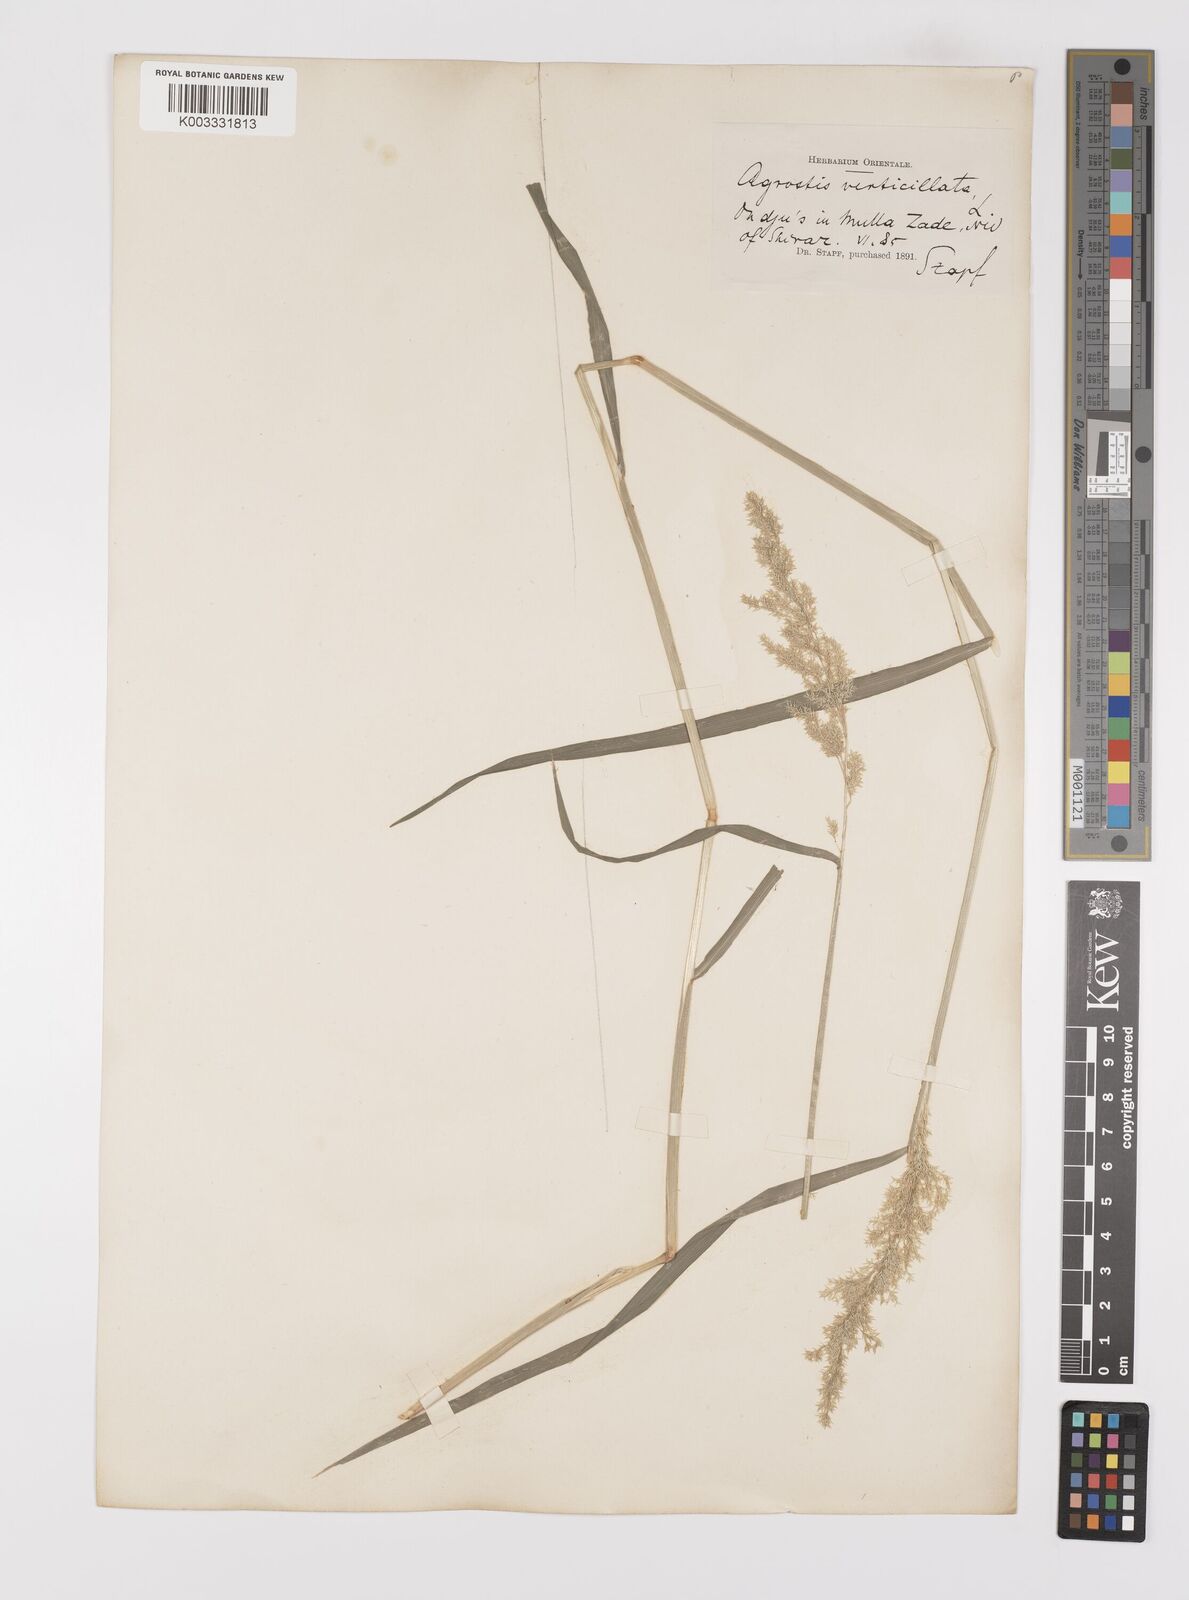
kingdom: Plantae
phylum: Tracheophyta
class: Liliopsida
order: Poales
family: Poaceae
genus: Polypogon
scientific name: Polypogon viridis
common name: Water bent
